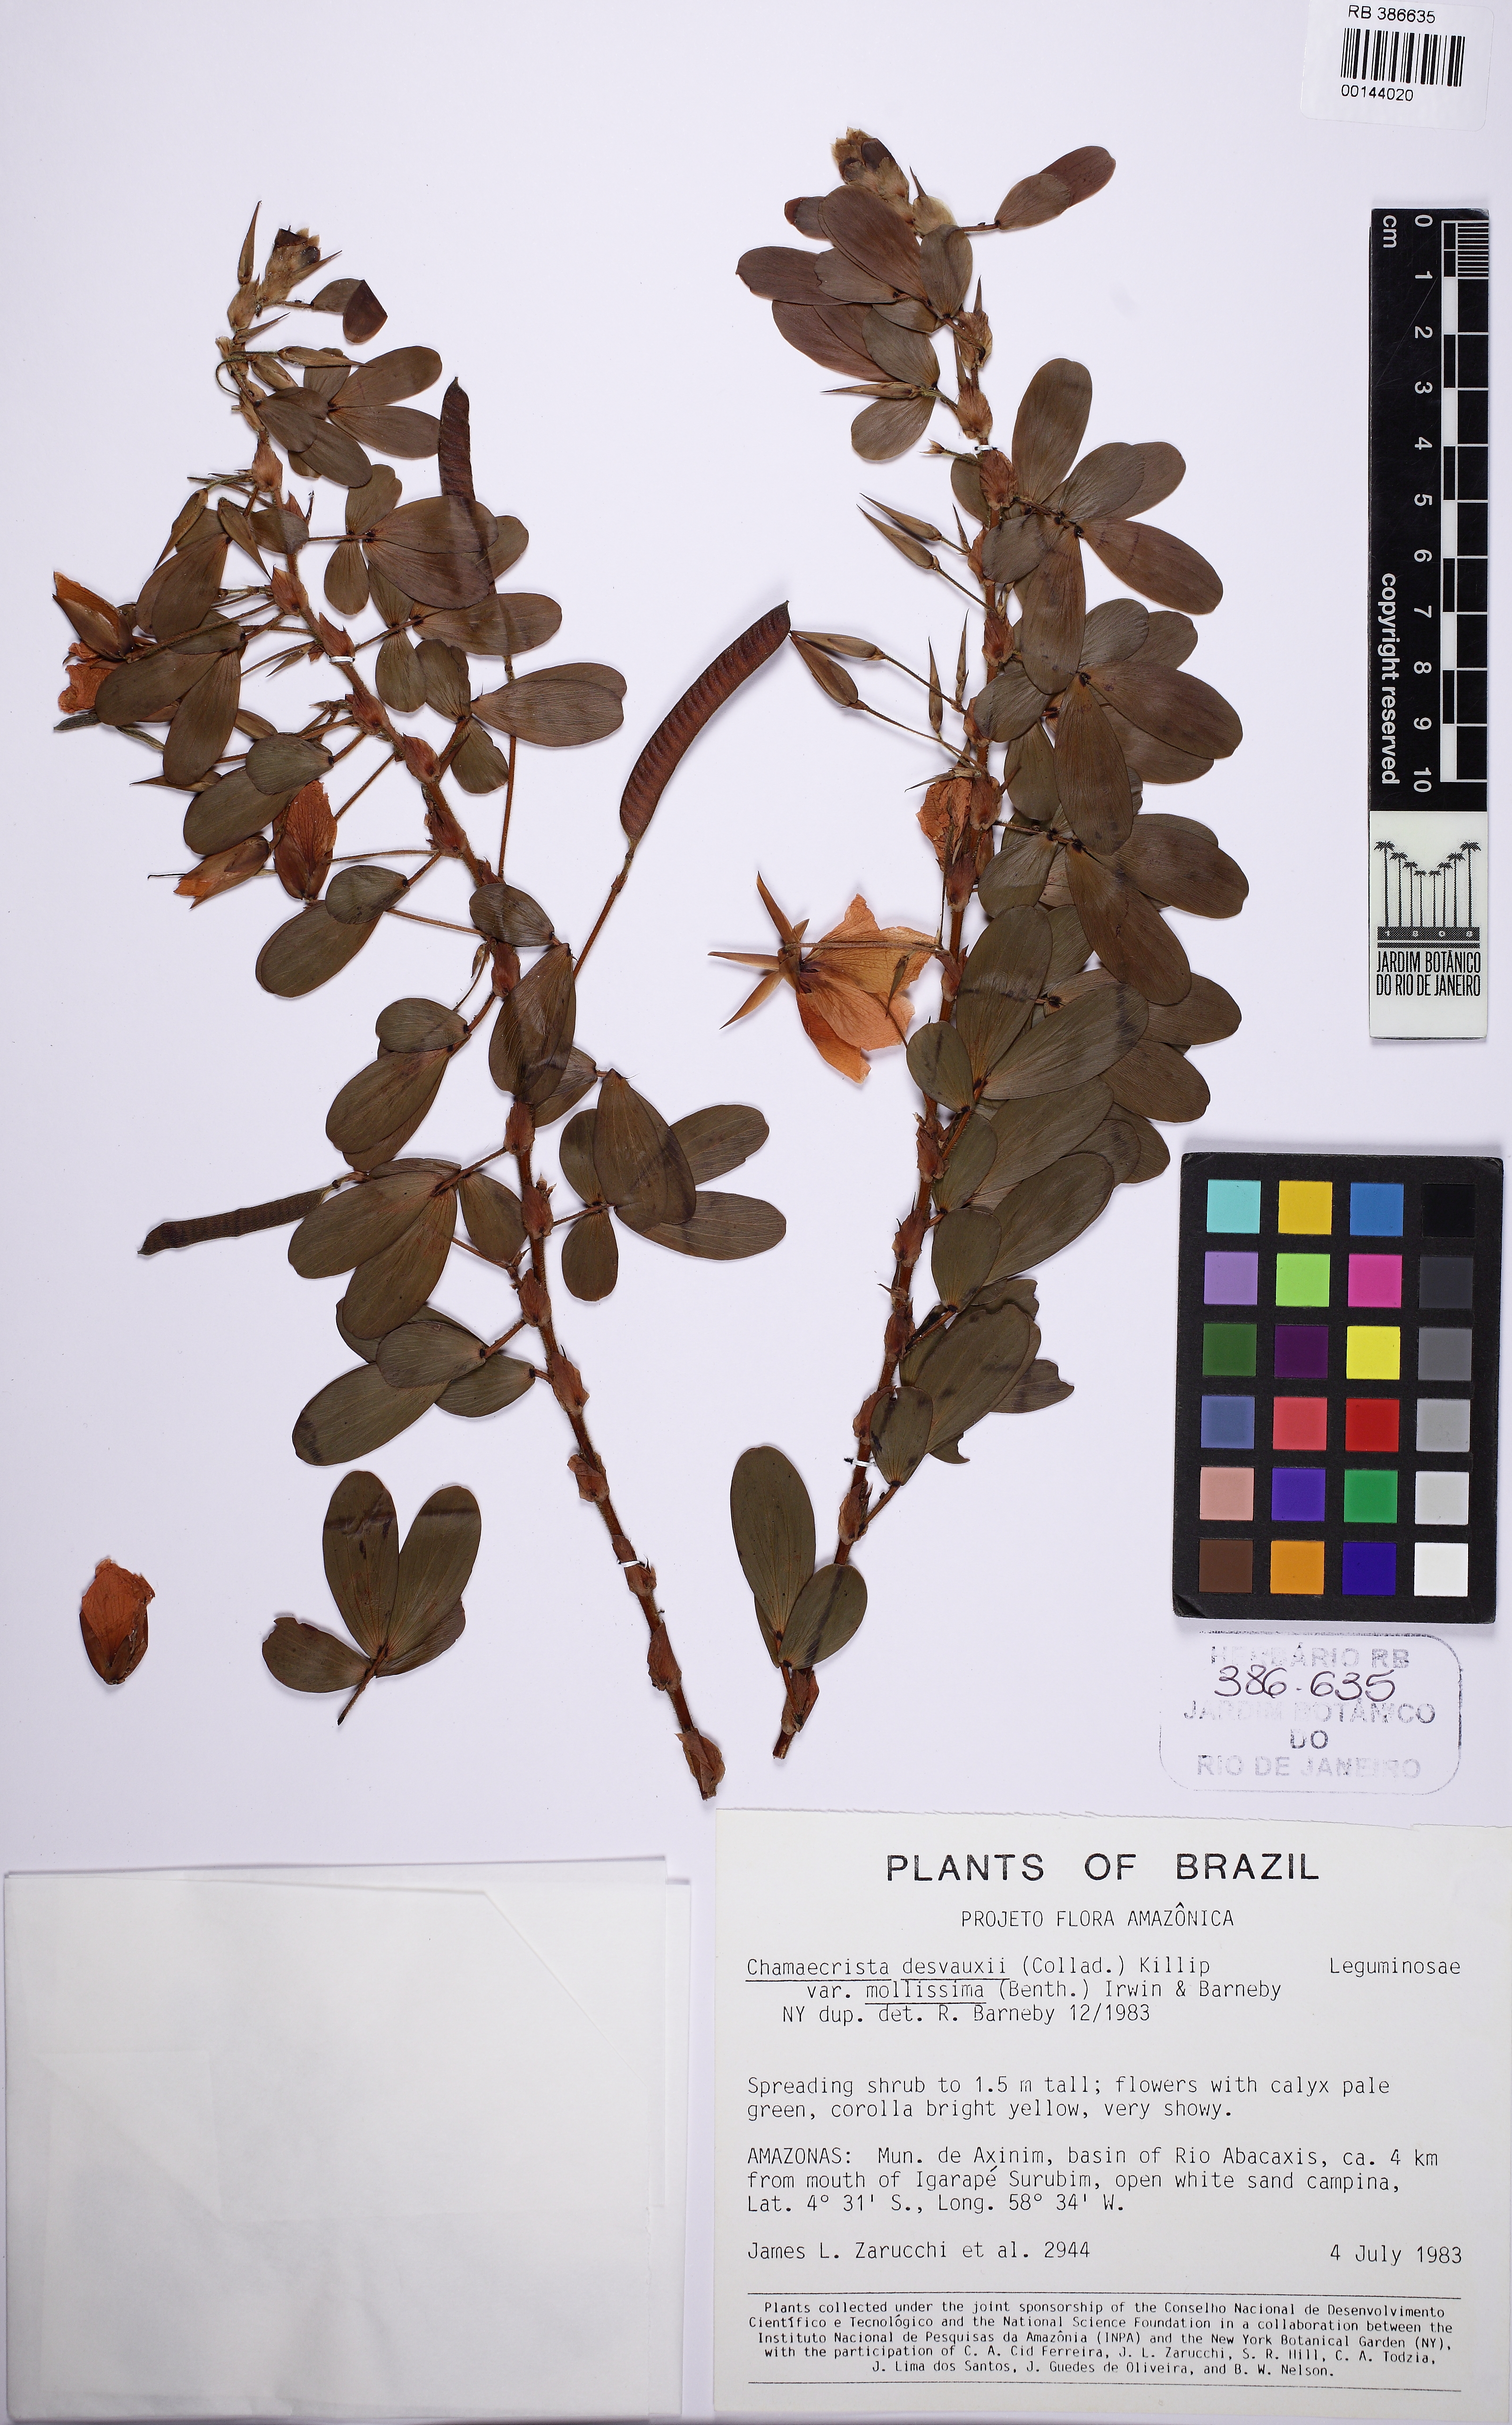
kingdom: Plantae
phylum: Tracheophyta
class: Magnoliopsida
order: Fabales
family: Fabaceae
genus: Chamaecrista
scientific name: Chamaecrista desvauxii
